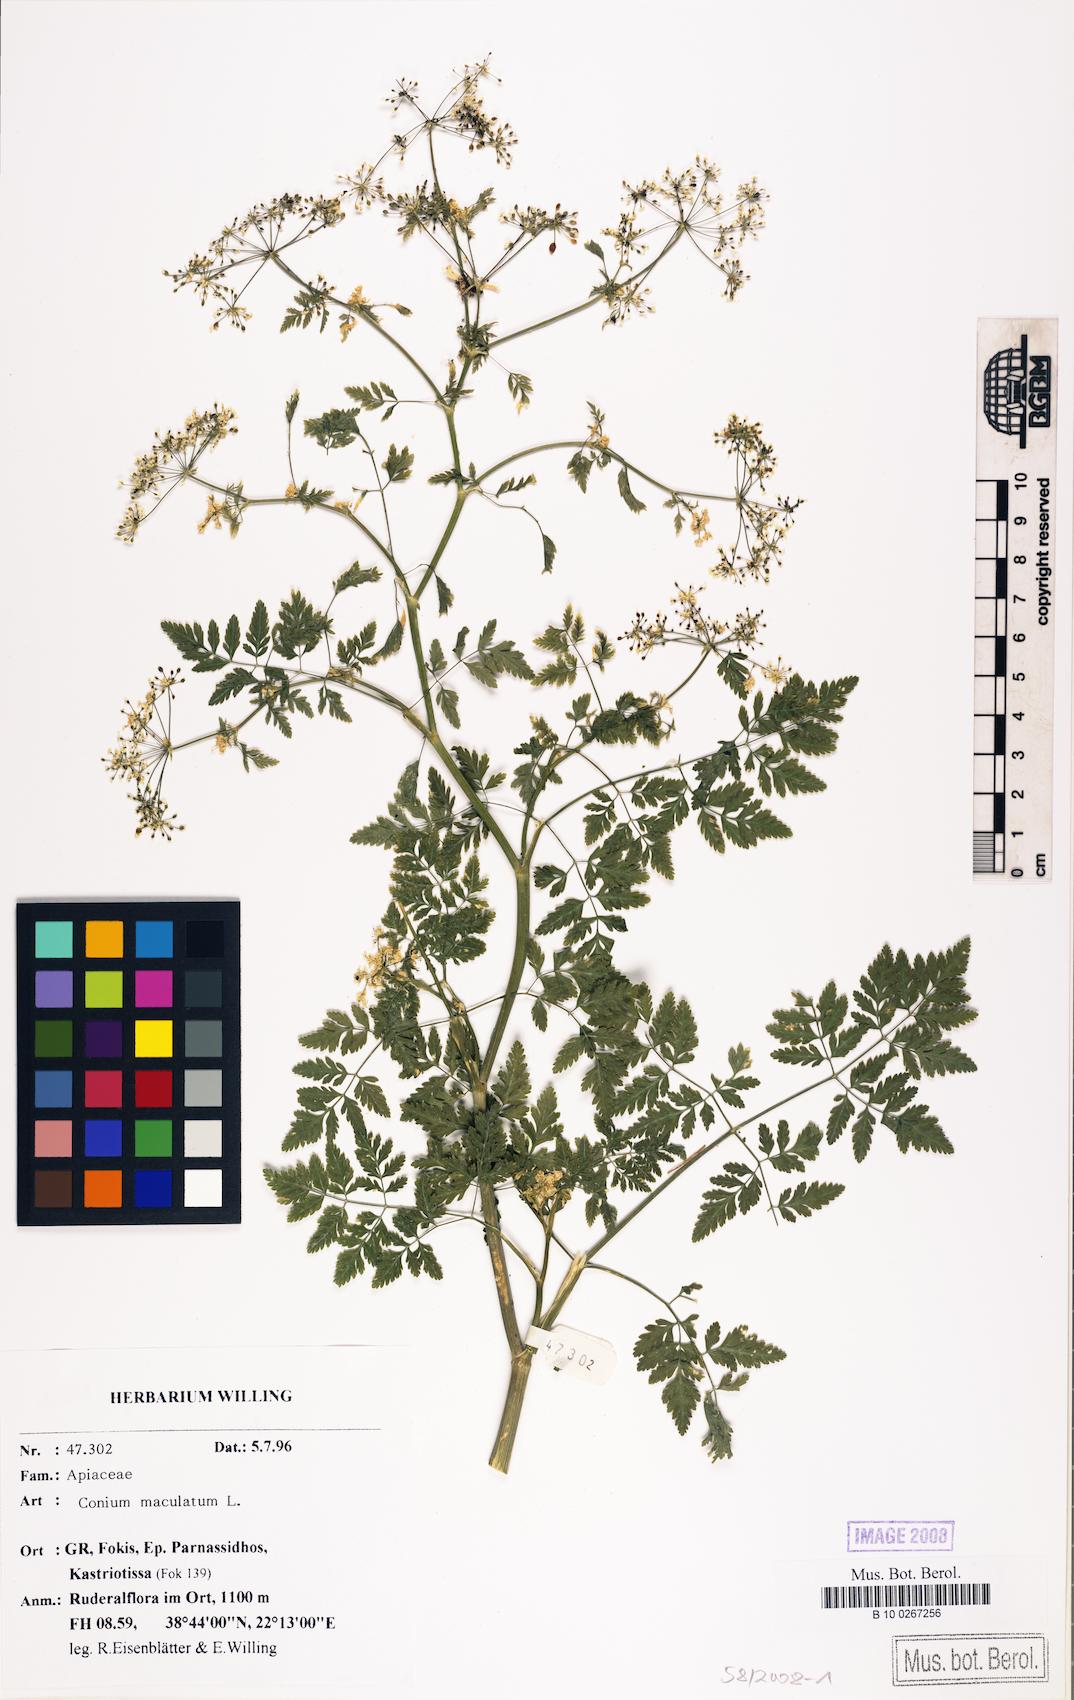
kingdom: Plantae
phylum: Tracheophyta
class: Magnoliopsida
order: Apiales
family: Apiaceae
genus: Conium
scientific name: Conium maculatum
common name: Hemlock
